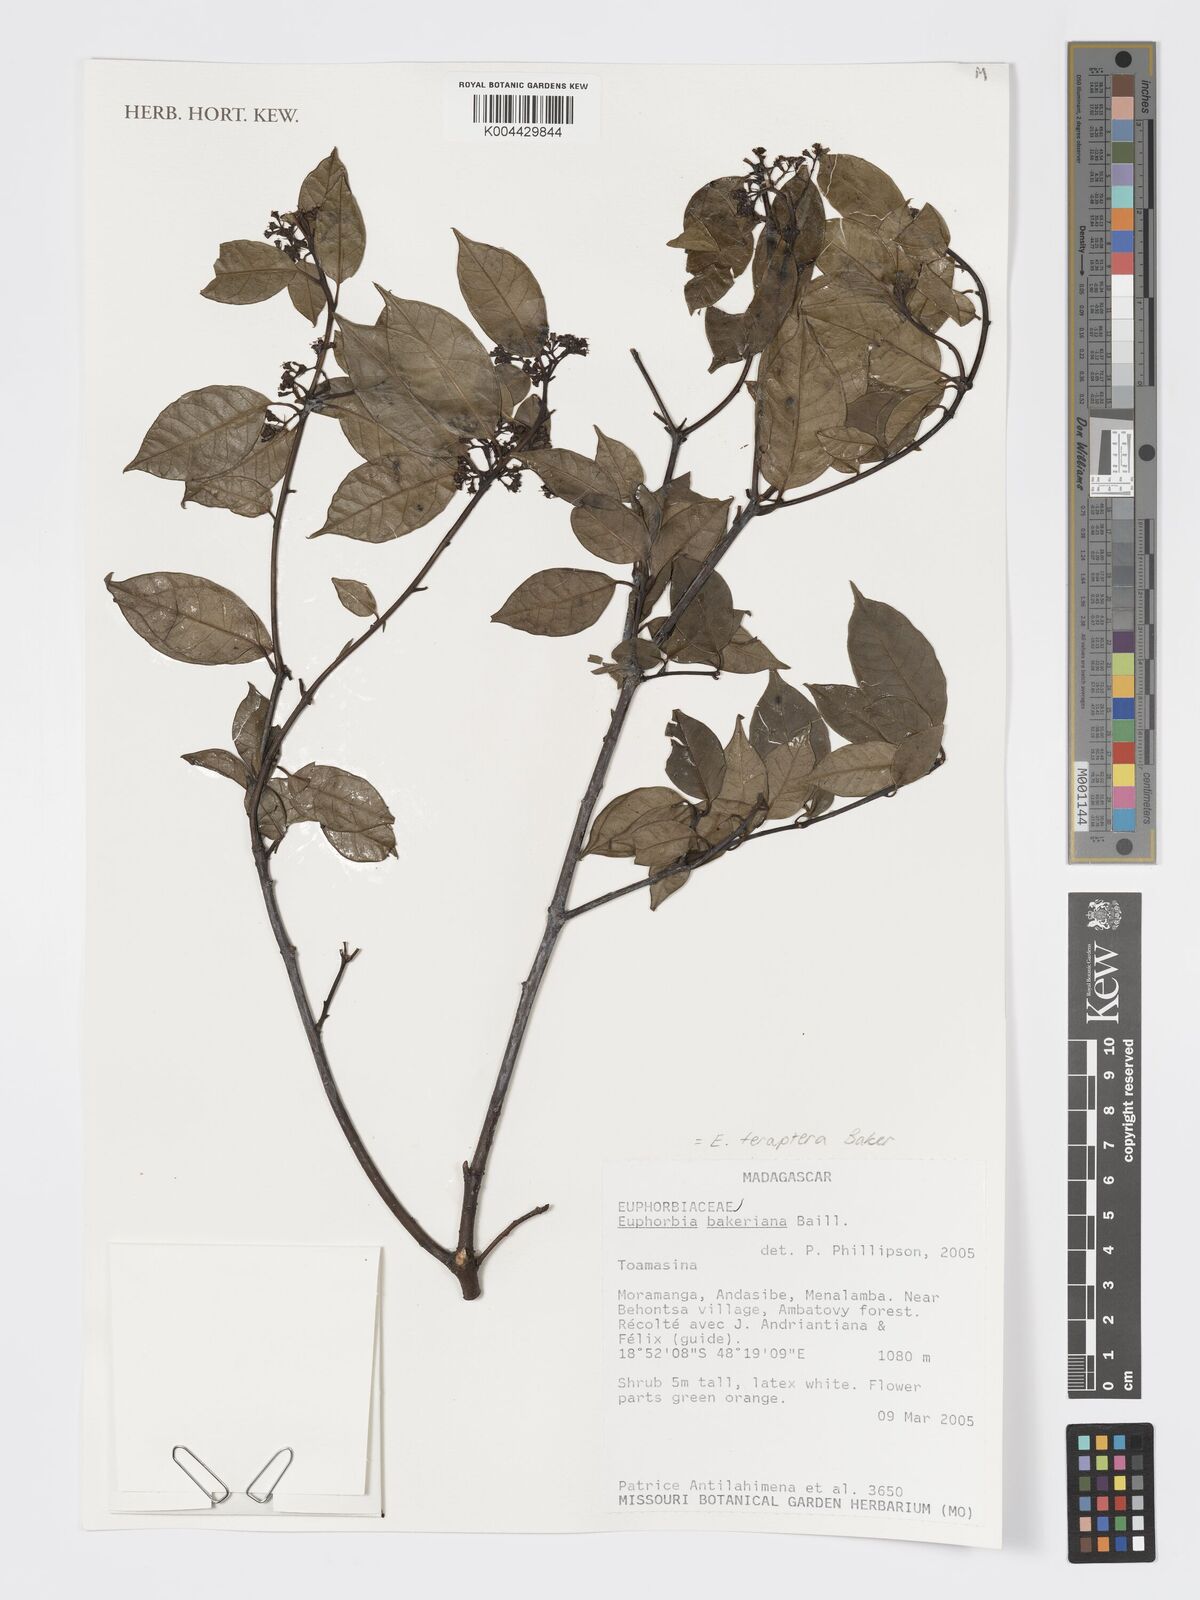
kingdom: Plantae
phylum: Tracheophyta
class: Magnoliopsida
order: Malpighiales
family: Euphorbiaceae
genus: Euphorbia
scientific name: Euphorbia tetraptera
